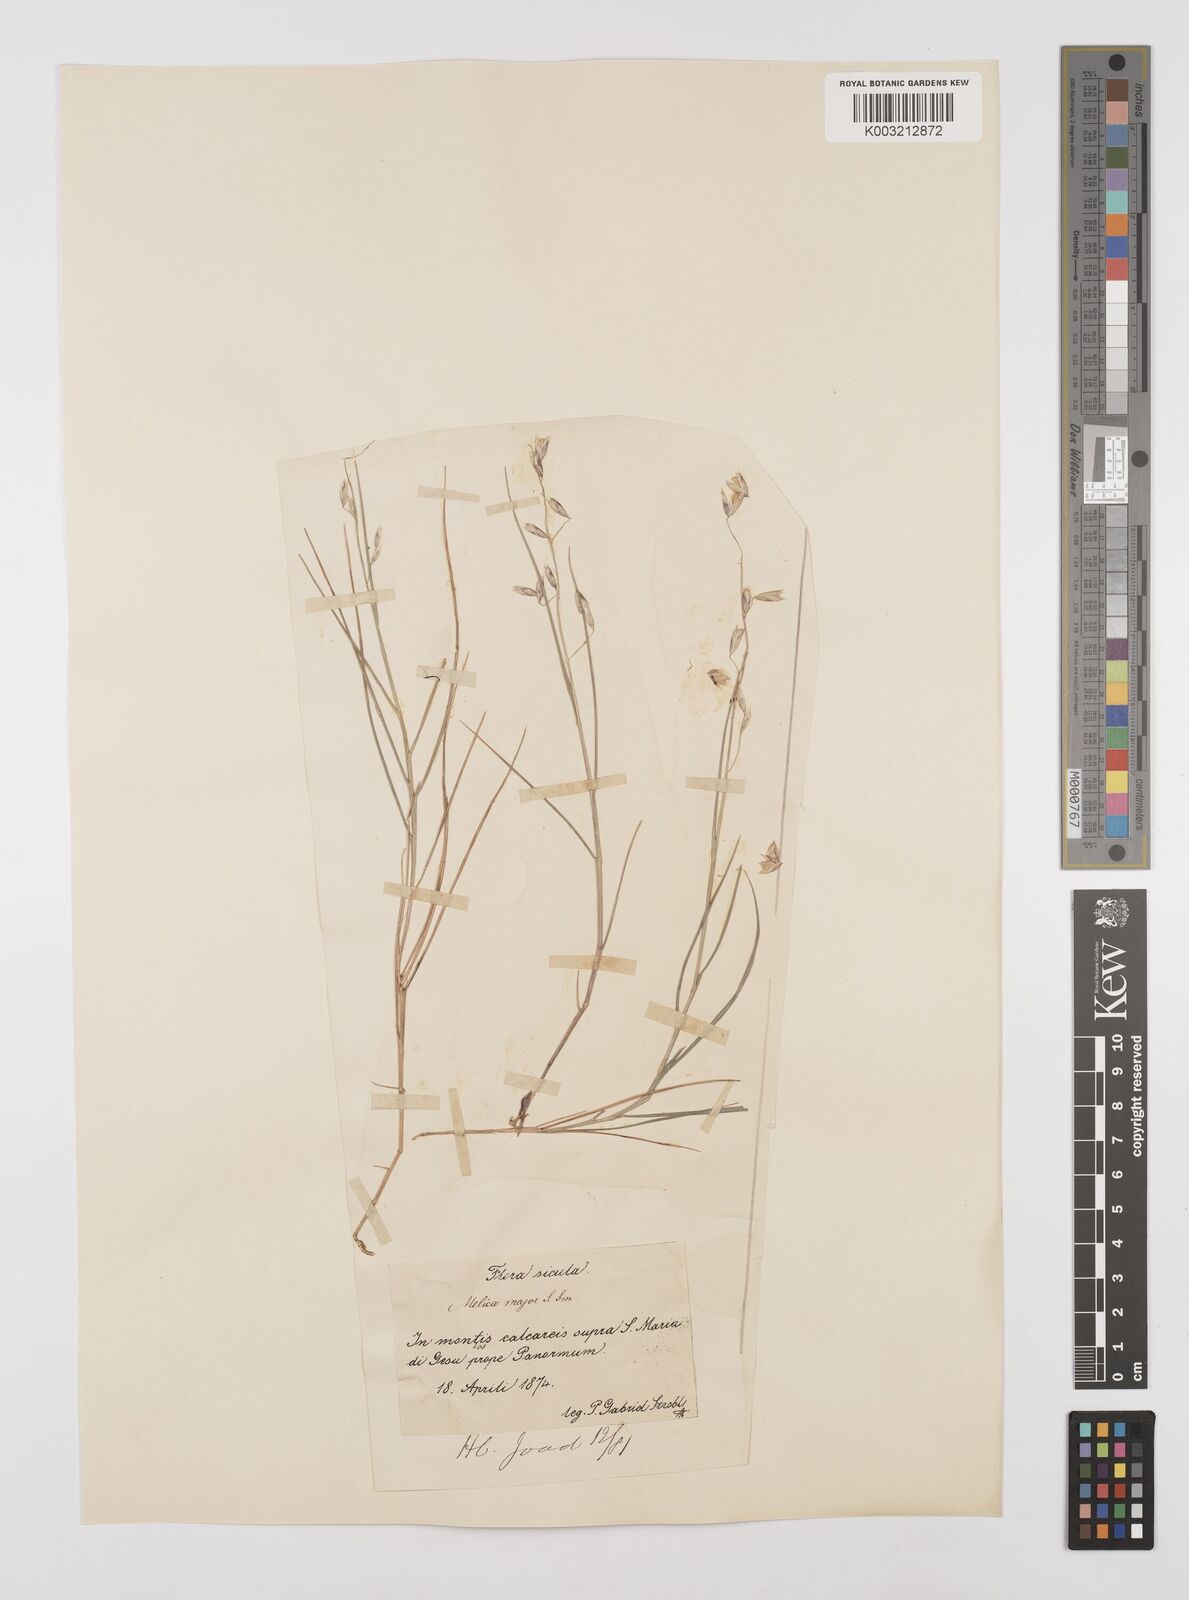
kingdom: Plantae
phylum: Tracheophyta
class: Liliopsida
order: Poales
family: Poaceae
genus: Melica
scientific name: Melica minuta
